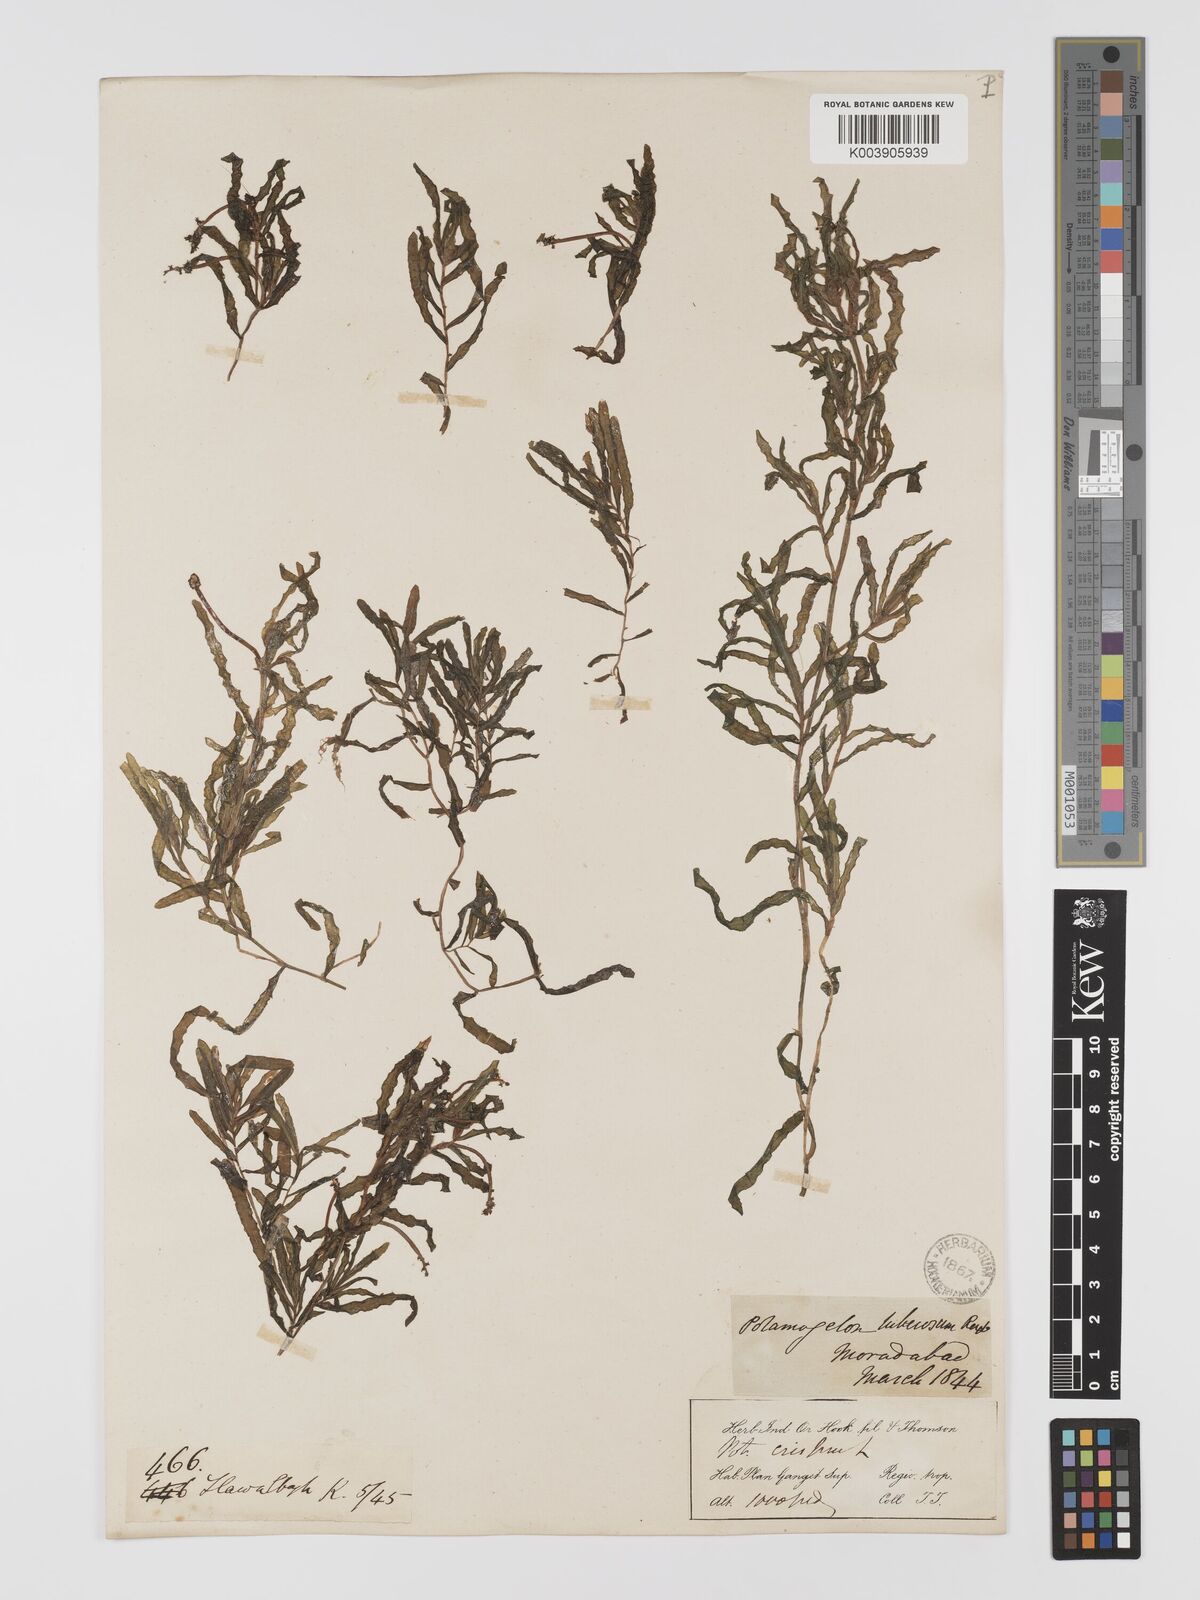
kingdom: Plantae
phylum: Tracheophyta
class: Liliopsida
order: Alismatales
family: Potamogetonaceae
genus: Potamogeton
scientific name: Potamogeton crispus
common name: Curled pondweed
